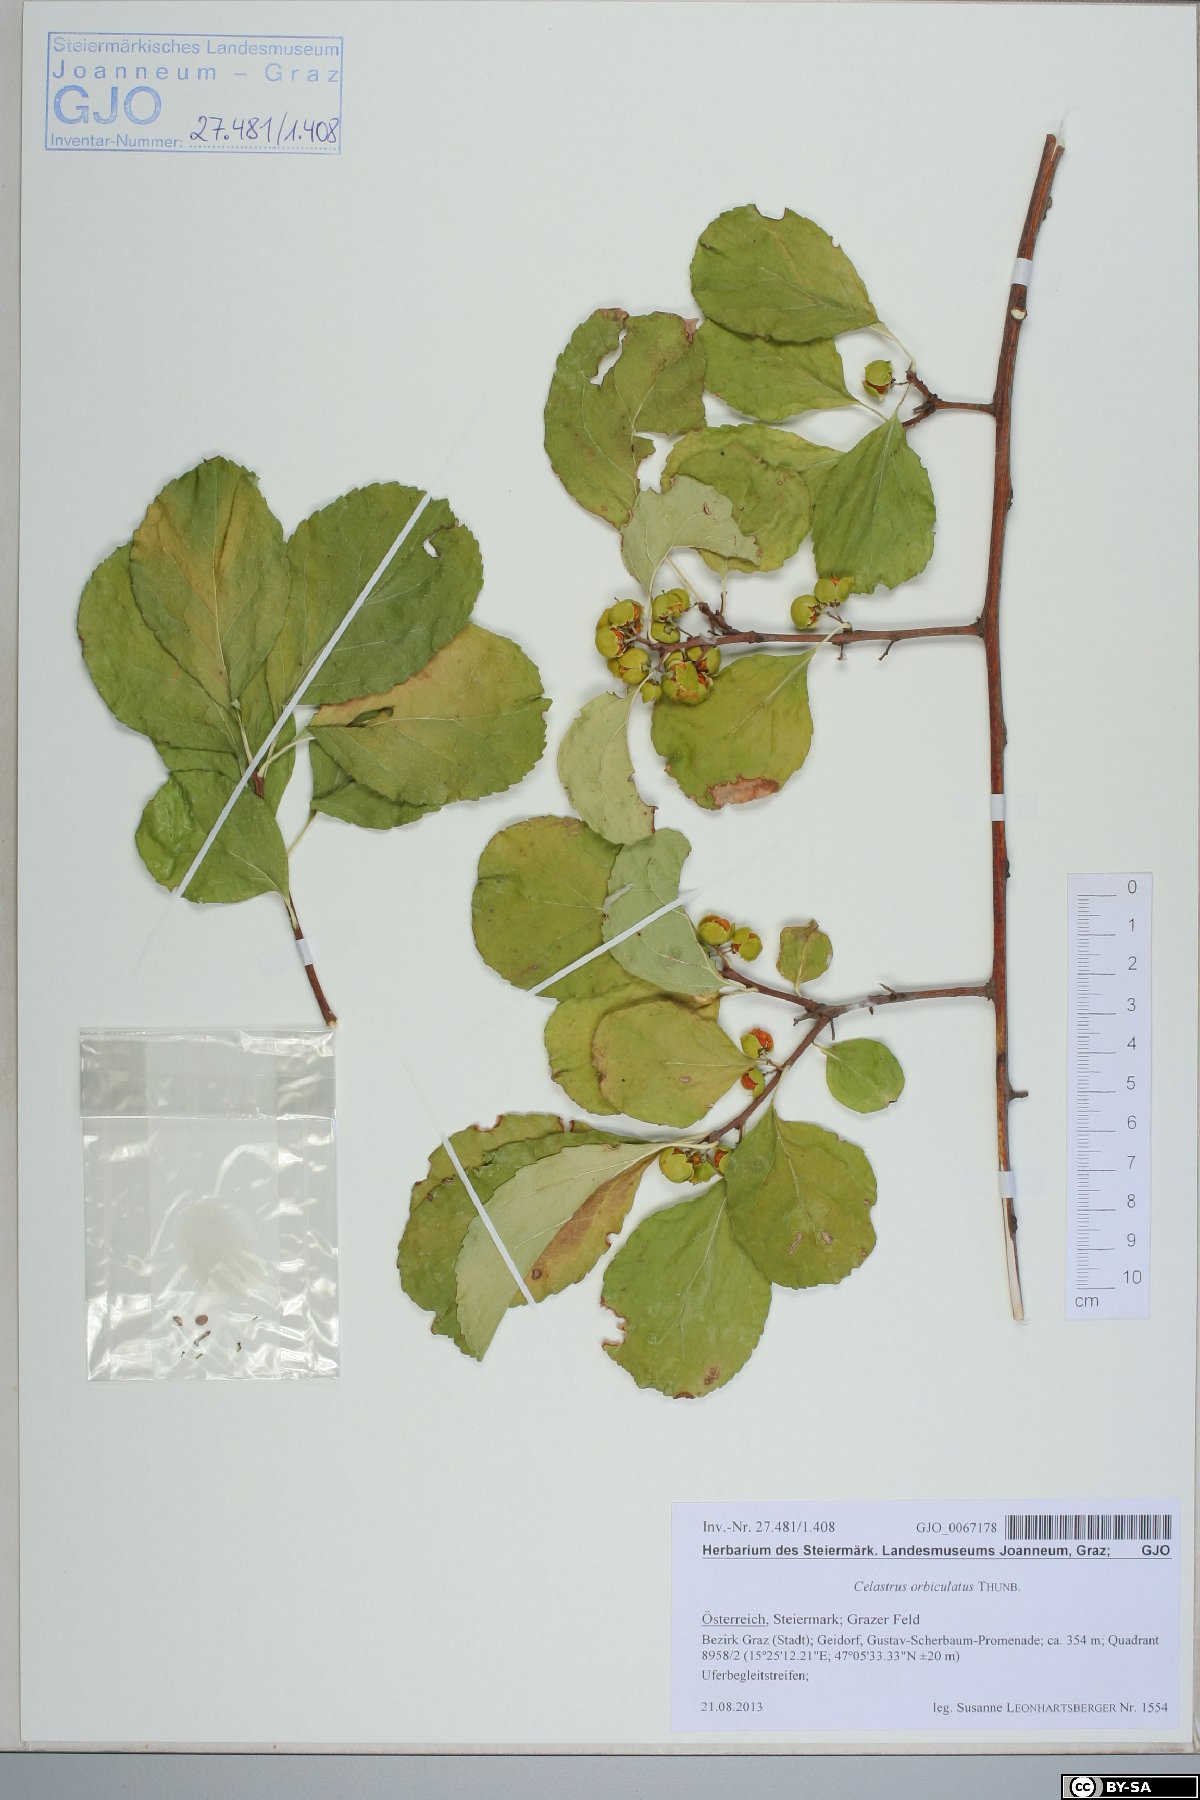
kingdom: Plantae
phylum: Tracheophyta
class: Magnoliopsida
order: Celastrales
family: Celastraceae
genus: Celastrus
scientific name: Celastrus orbiculatus
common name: Oriental bittersweet
